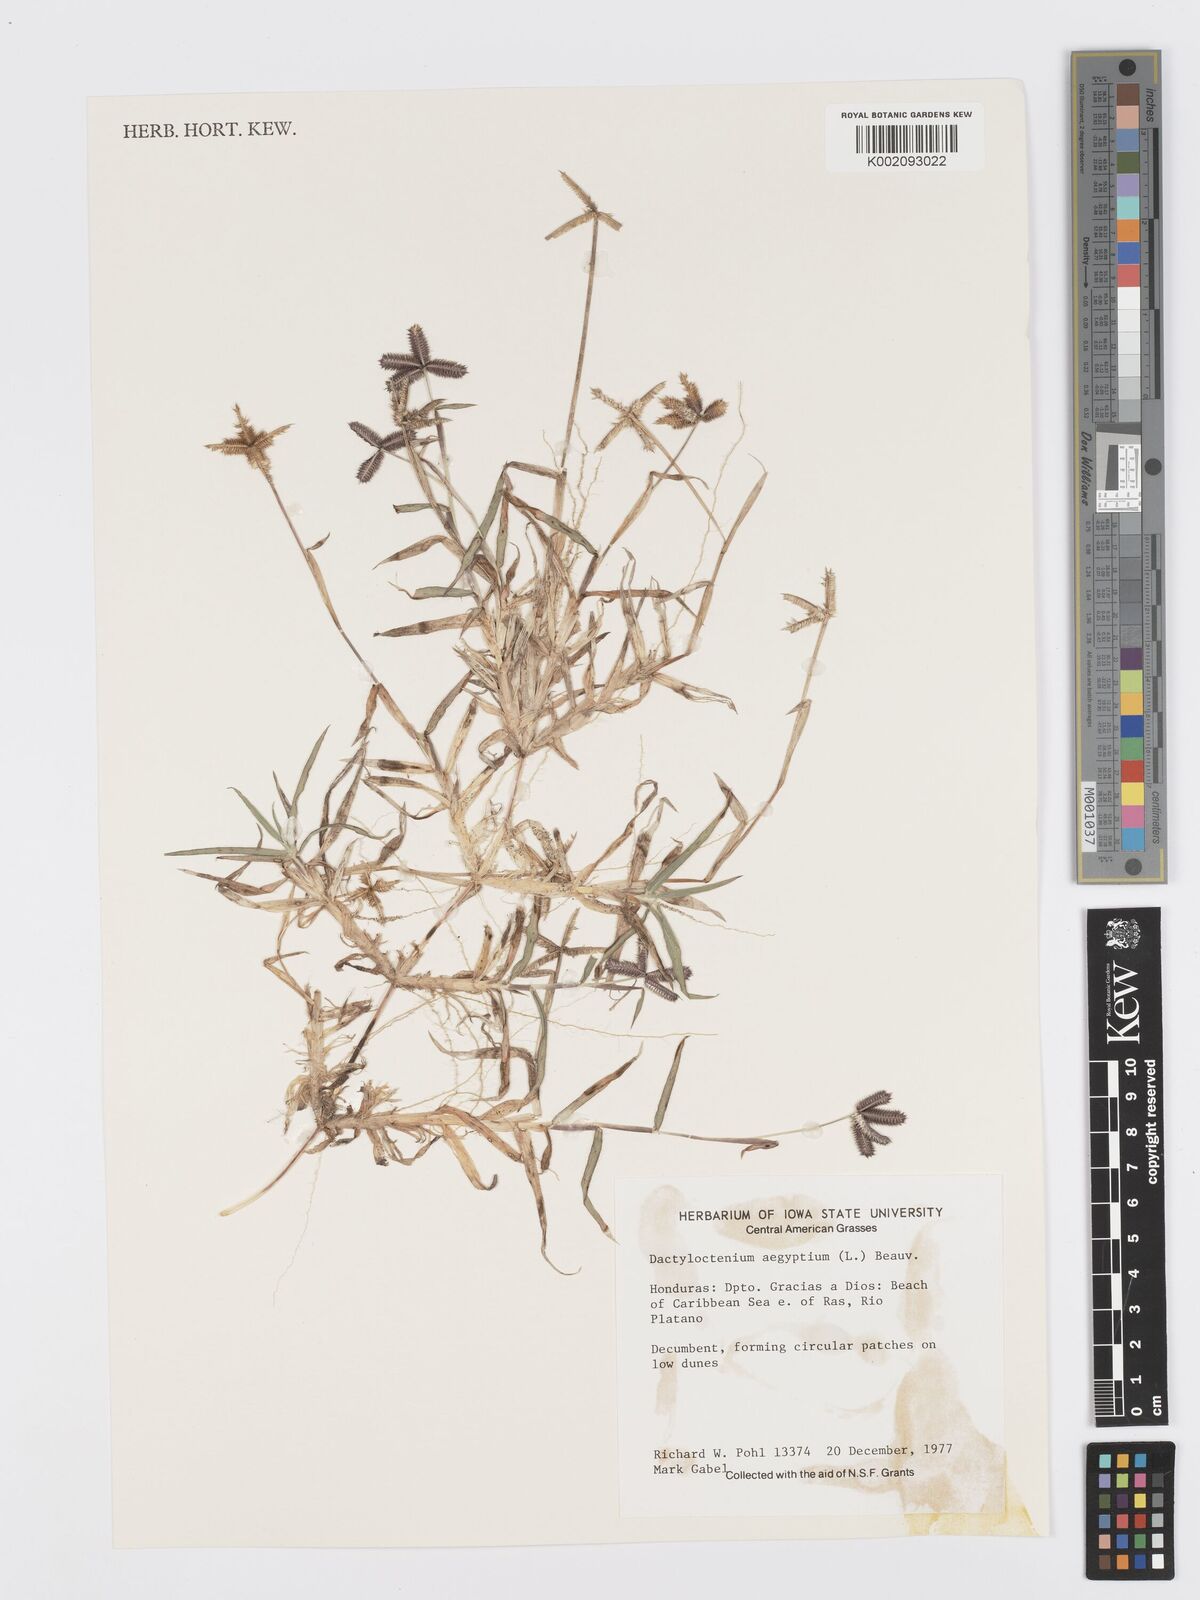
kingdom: Plantae
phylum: Tracheophyta
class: Liliopsida
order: Poales
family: Poaceae
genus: Dactyloctenium
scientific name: Dactyloctenium aegyptium
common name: Egyptian grass
